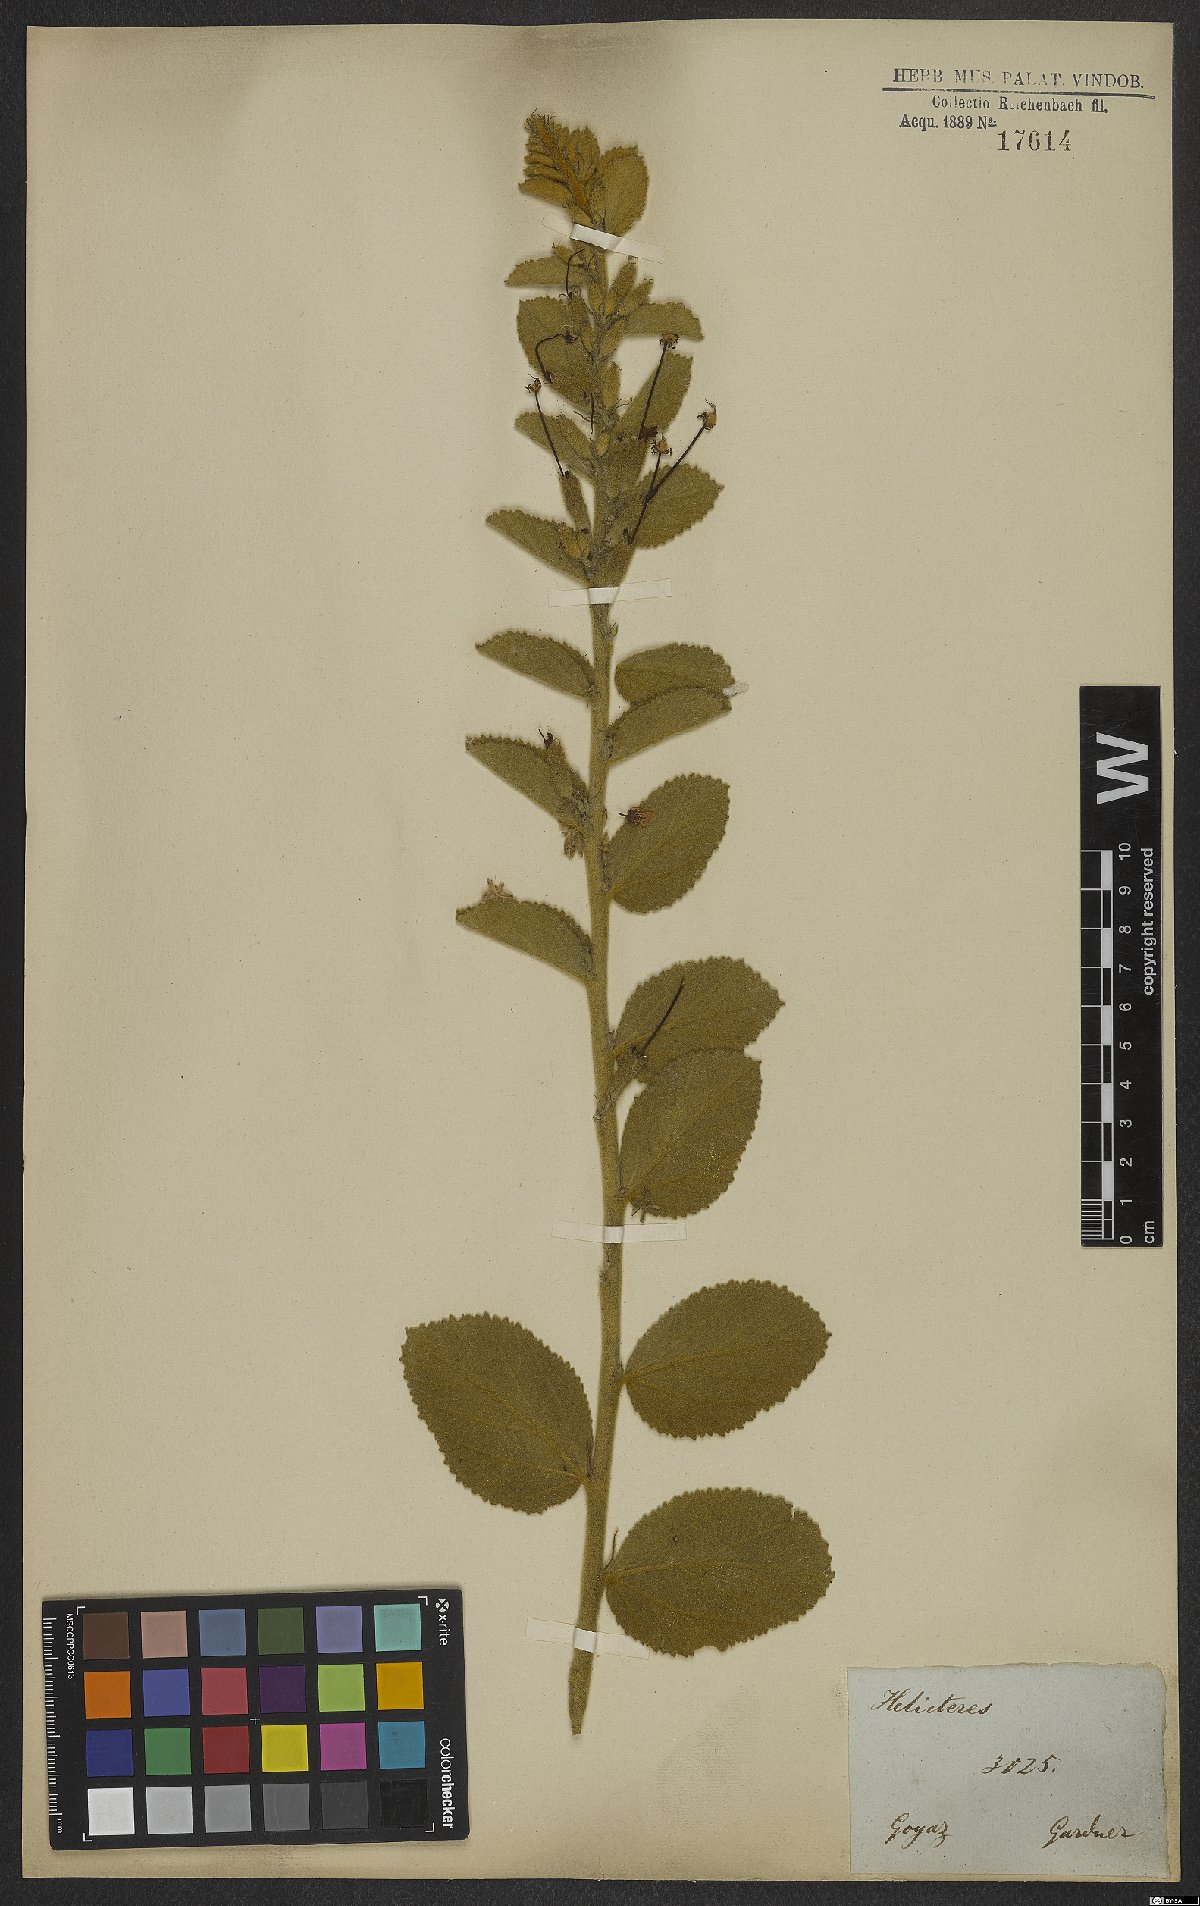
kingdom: Plantae
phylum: Tracheophyta
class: Magnoliopsida
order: Malvales
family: Malvaceae
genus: Helicteres
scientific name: Helicteres sacarolha
